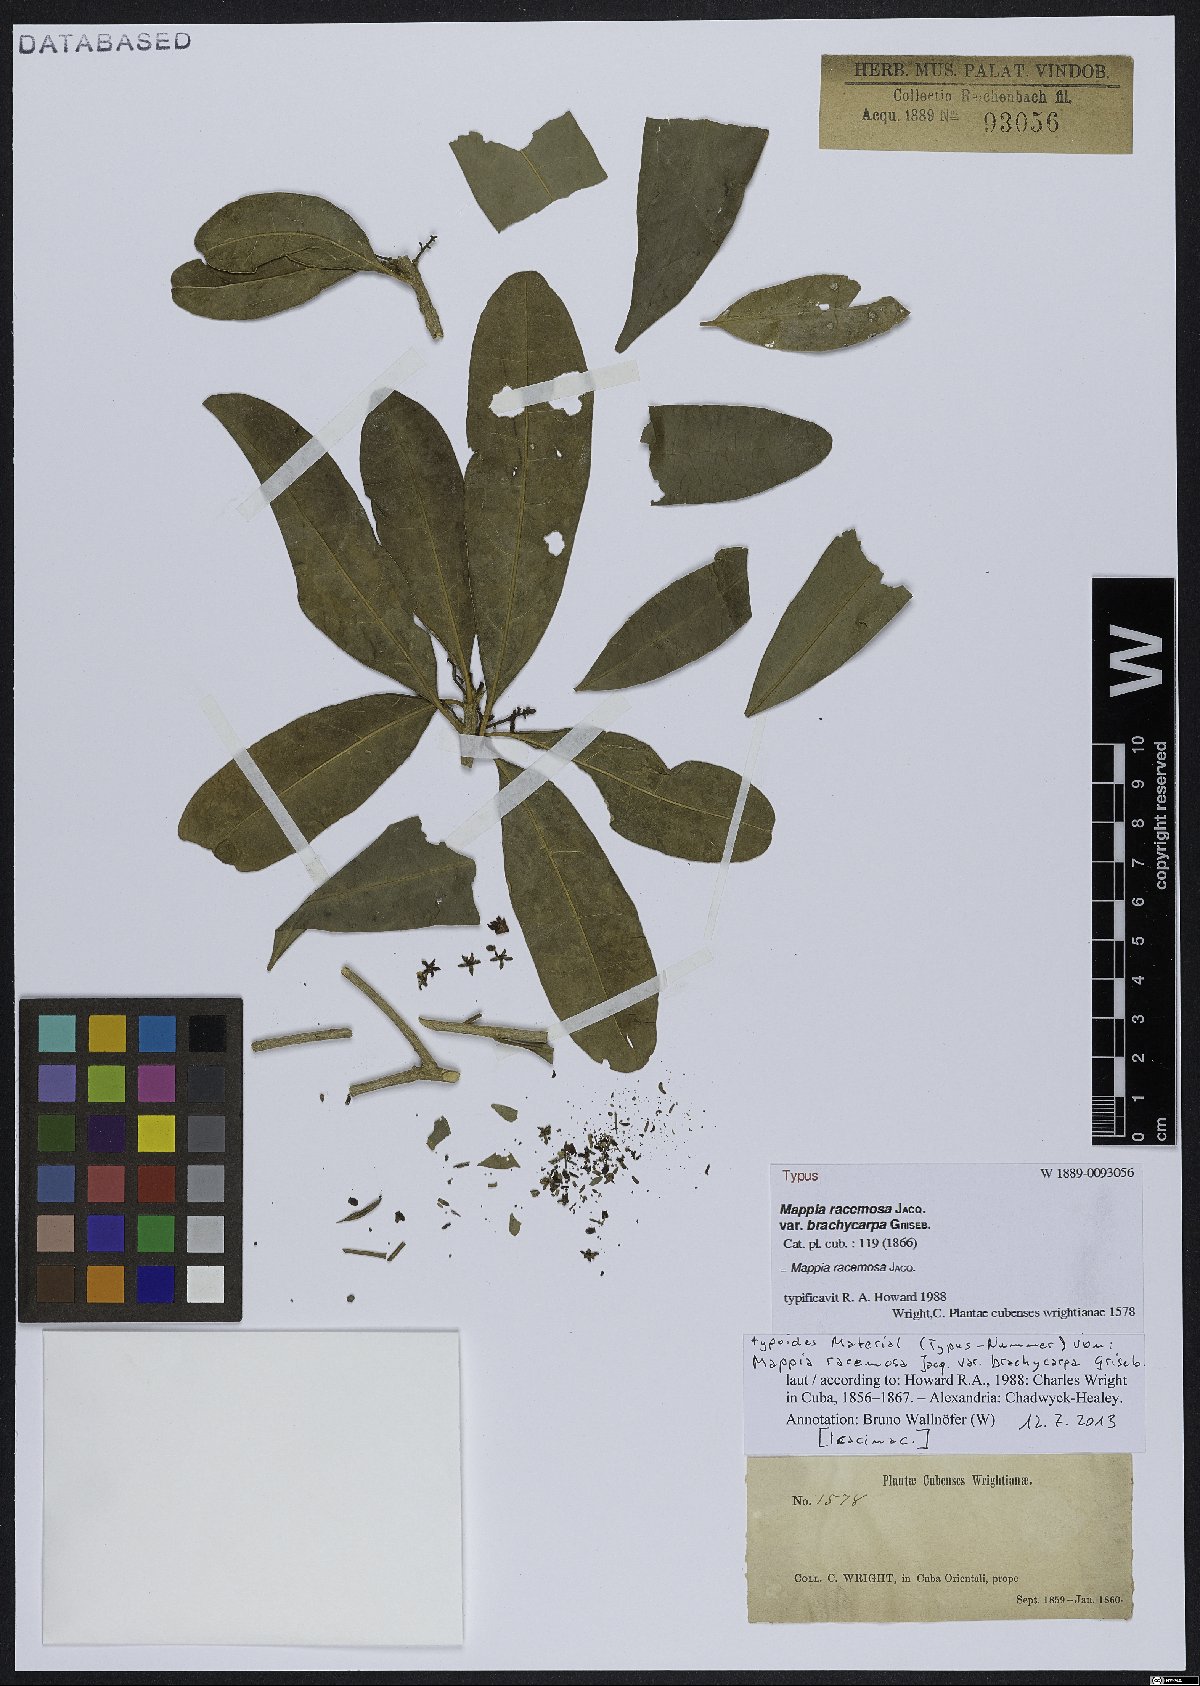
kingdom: Plantae
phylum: Tracheophyta
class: Magnoliopsida
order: Icacinales
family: Icacinaceae
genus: Mappia
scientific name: Mappia racemosa
